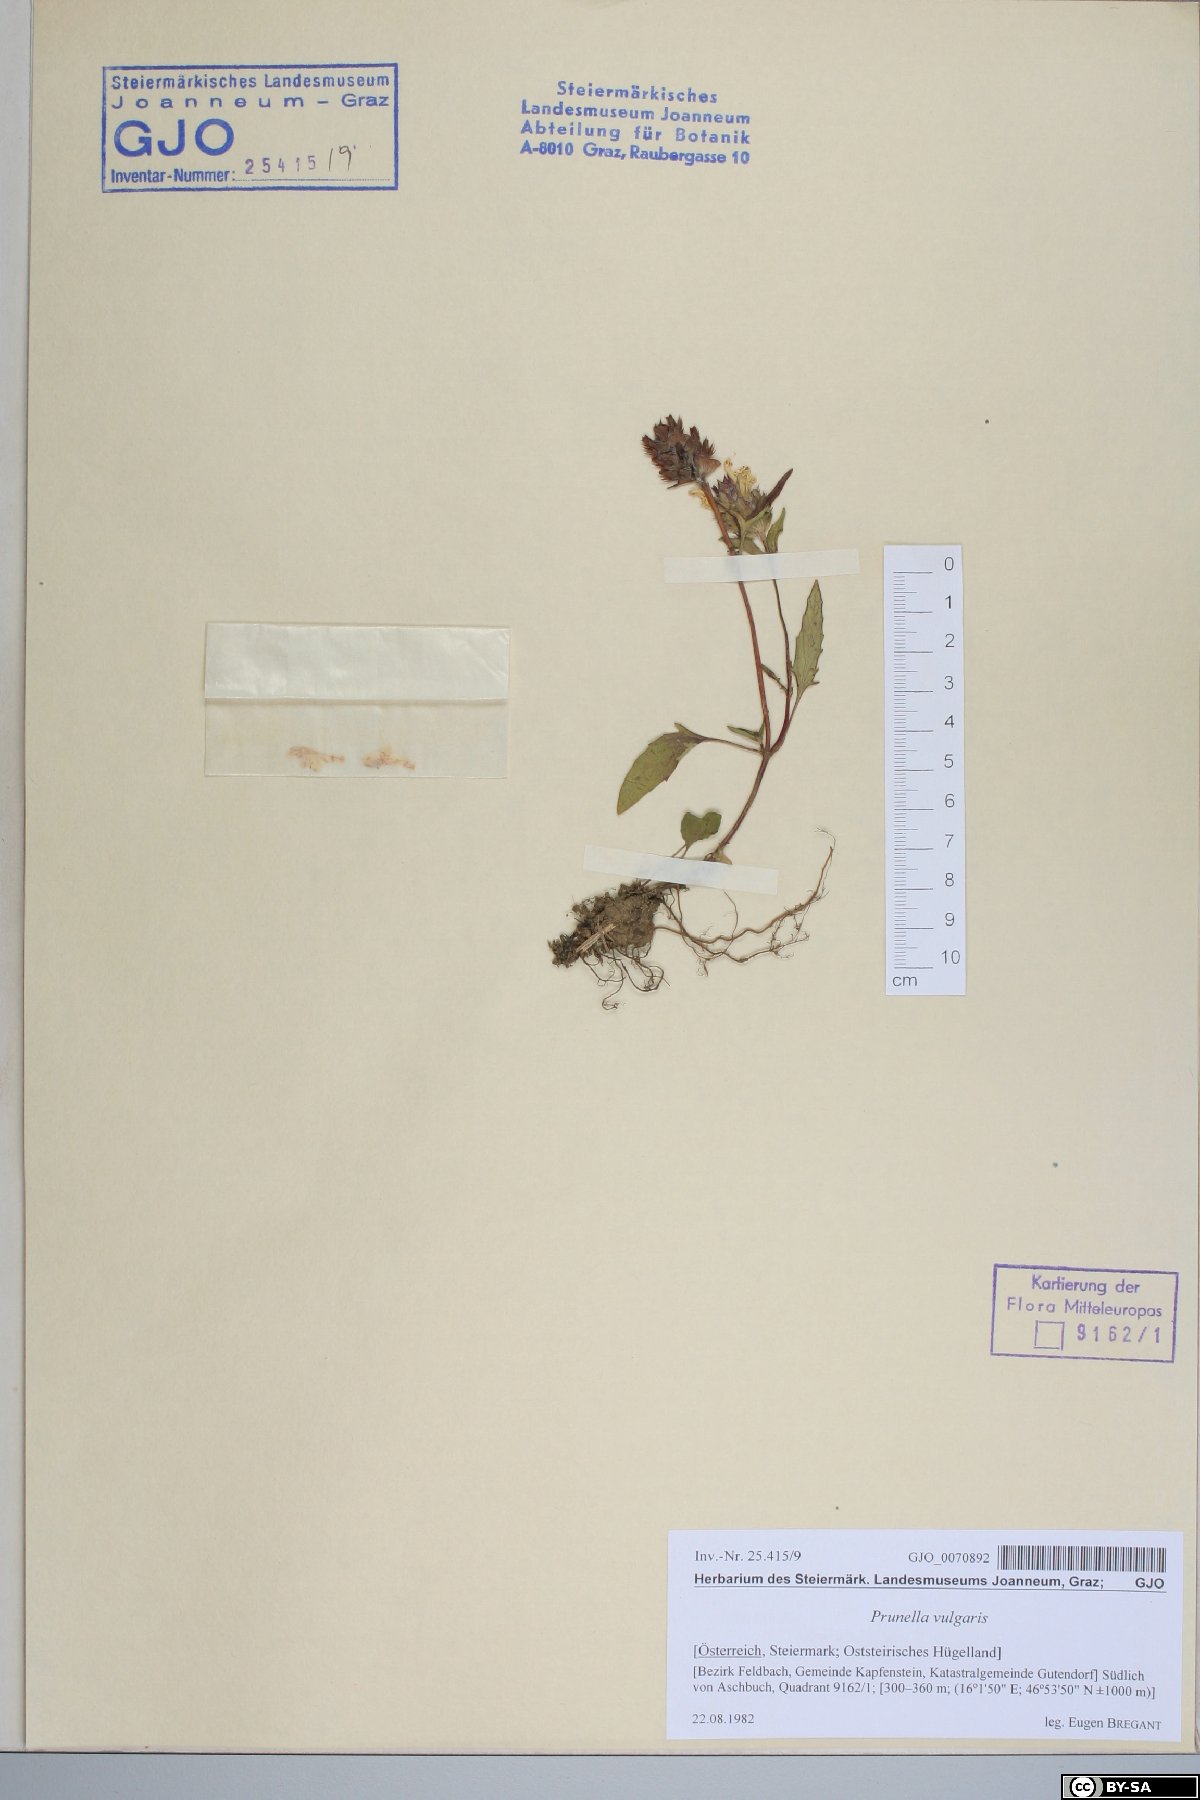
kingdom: Plantae
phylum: Tracheophyta
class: Magnoliopsida
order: Lamiales
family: Lamiaceae
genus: Prunella
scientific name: Prunella vulgaris
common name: Heal-all
